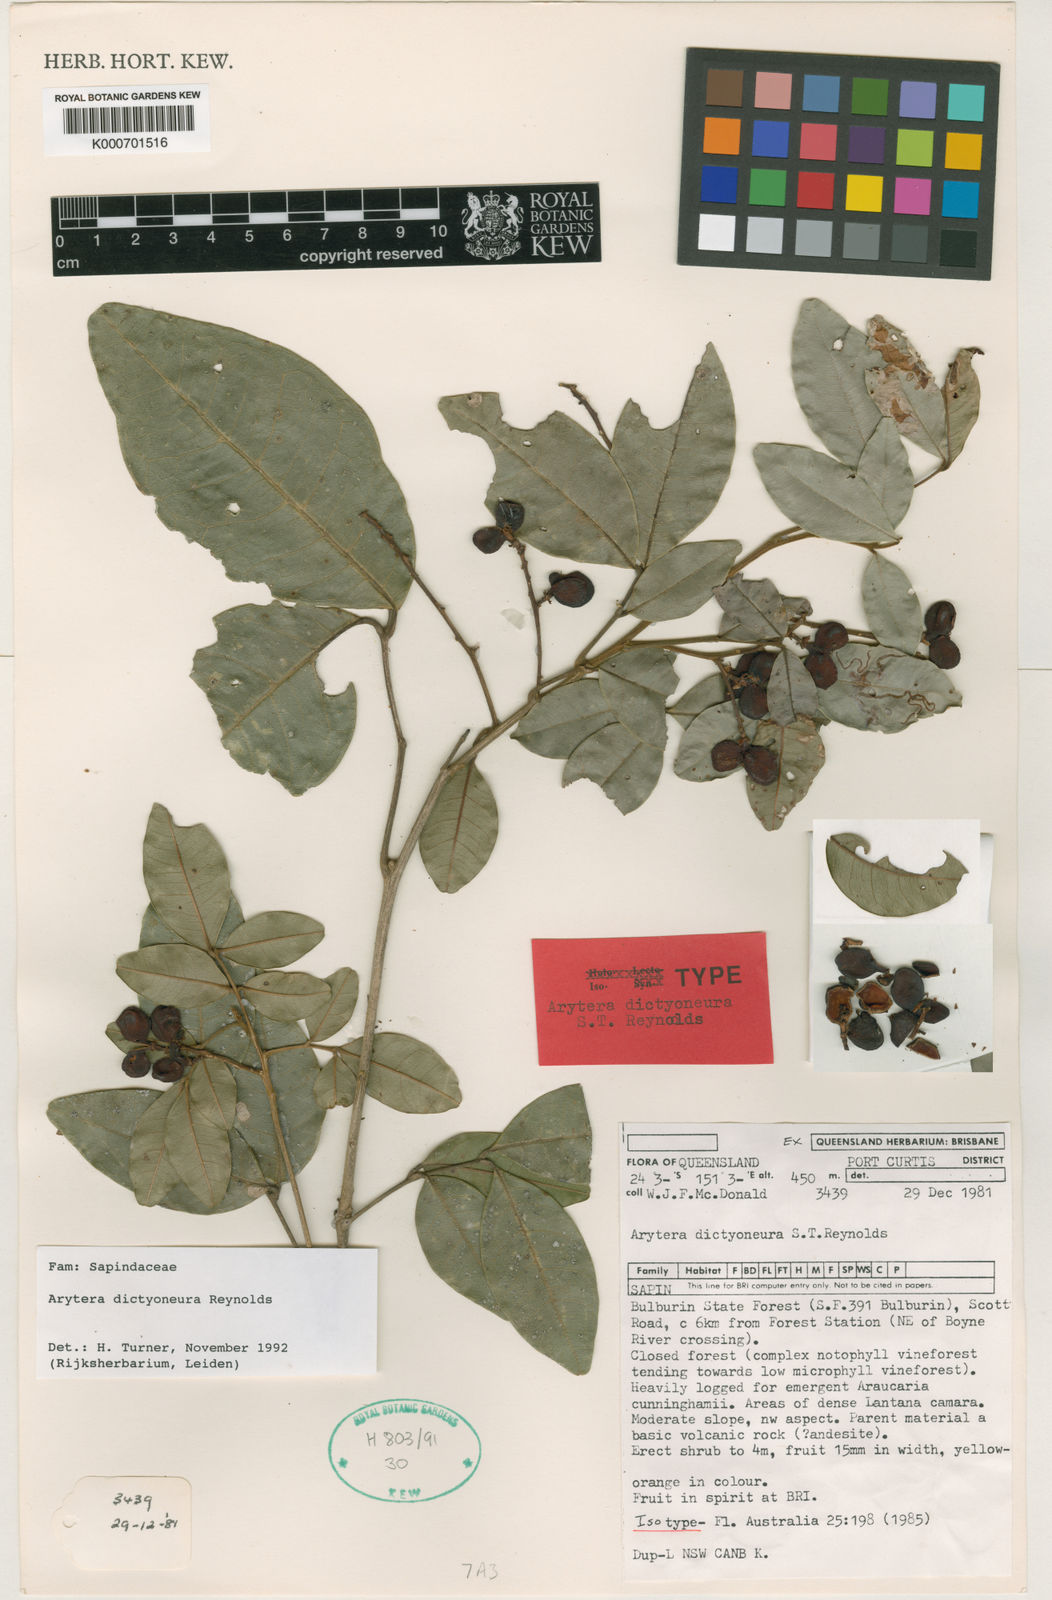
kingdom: Plantae
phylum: Tracheophyta
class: Magnoliopsida
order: Sapindales
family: Sapindaceae
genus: Arytera
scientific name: Arytera dictyoneura
